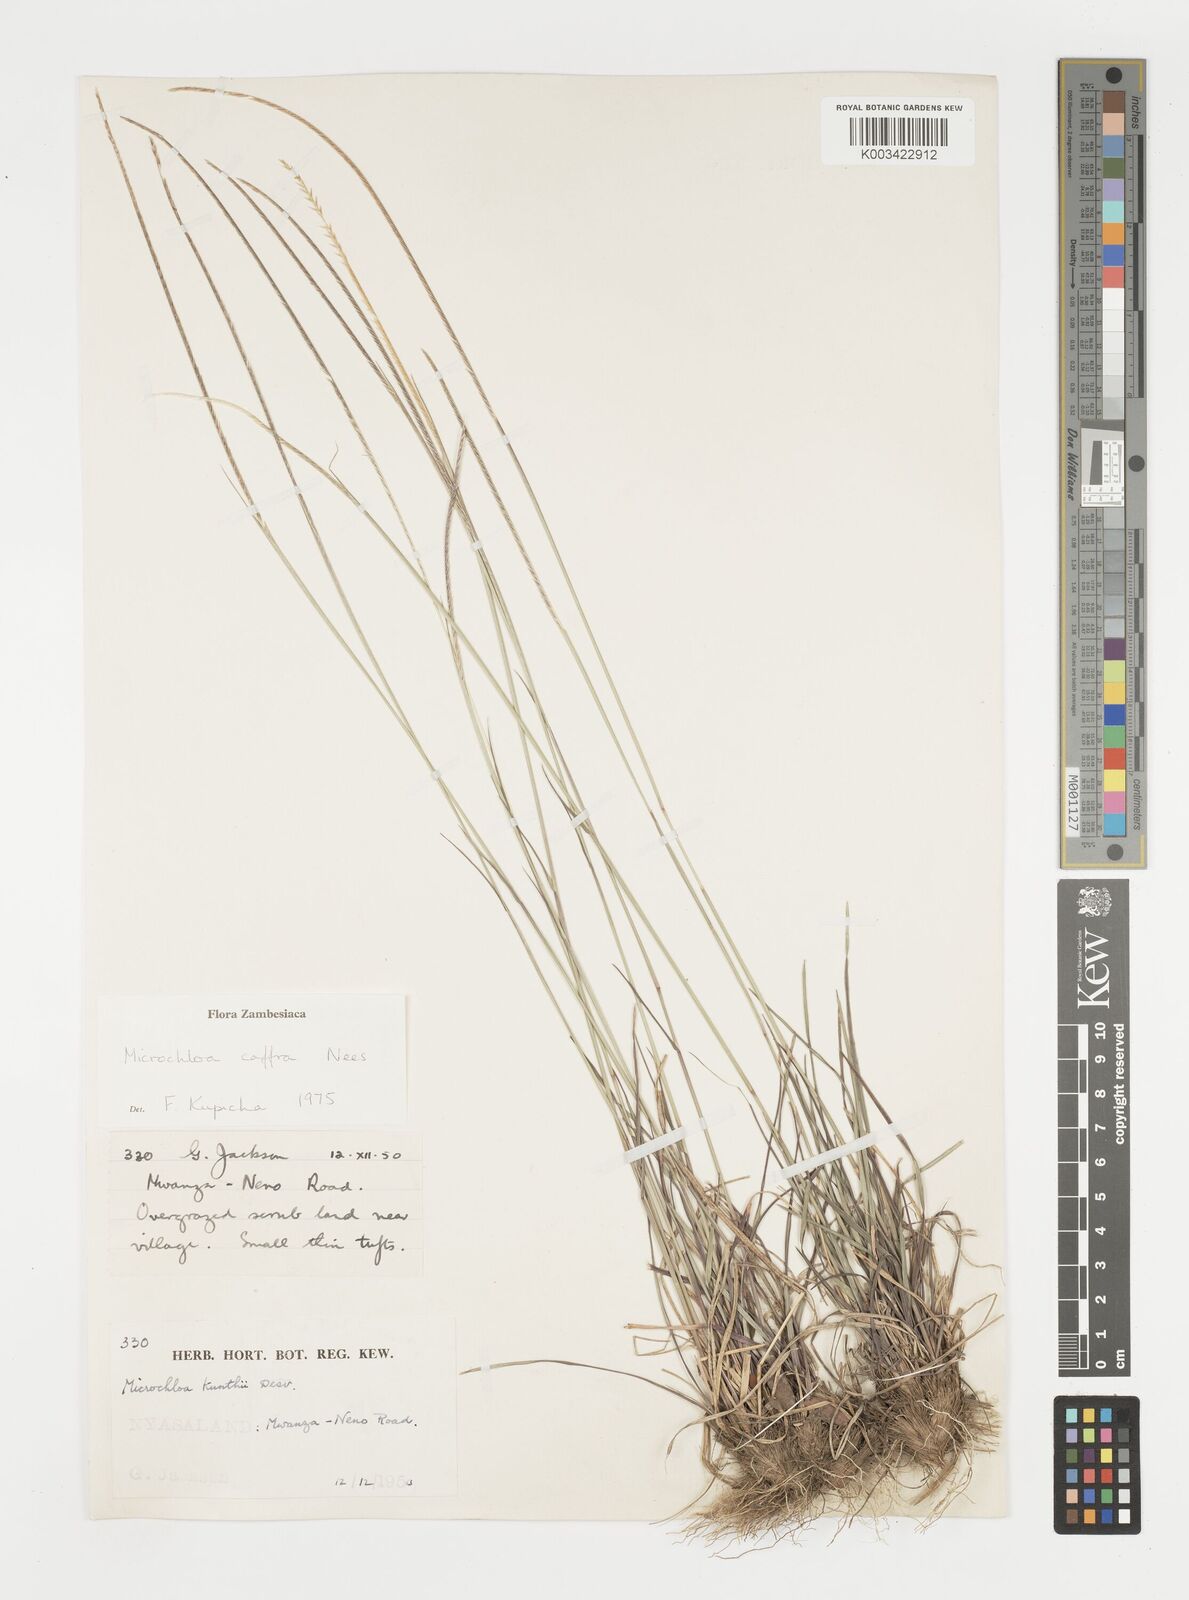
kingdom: Plantae
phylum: Tracheophyta
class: Liliopsida
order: Poales
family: Poaceae
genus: Microchloa
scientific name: Microchloa caffra
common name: Pincushion grass
